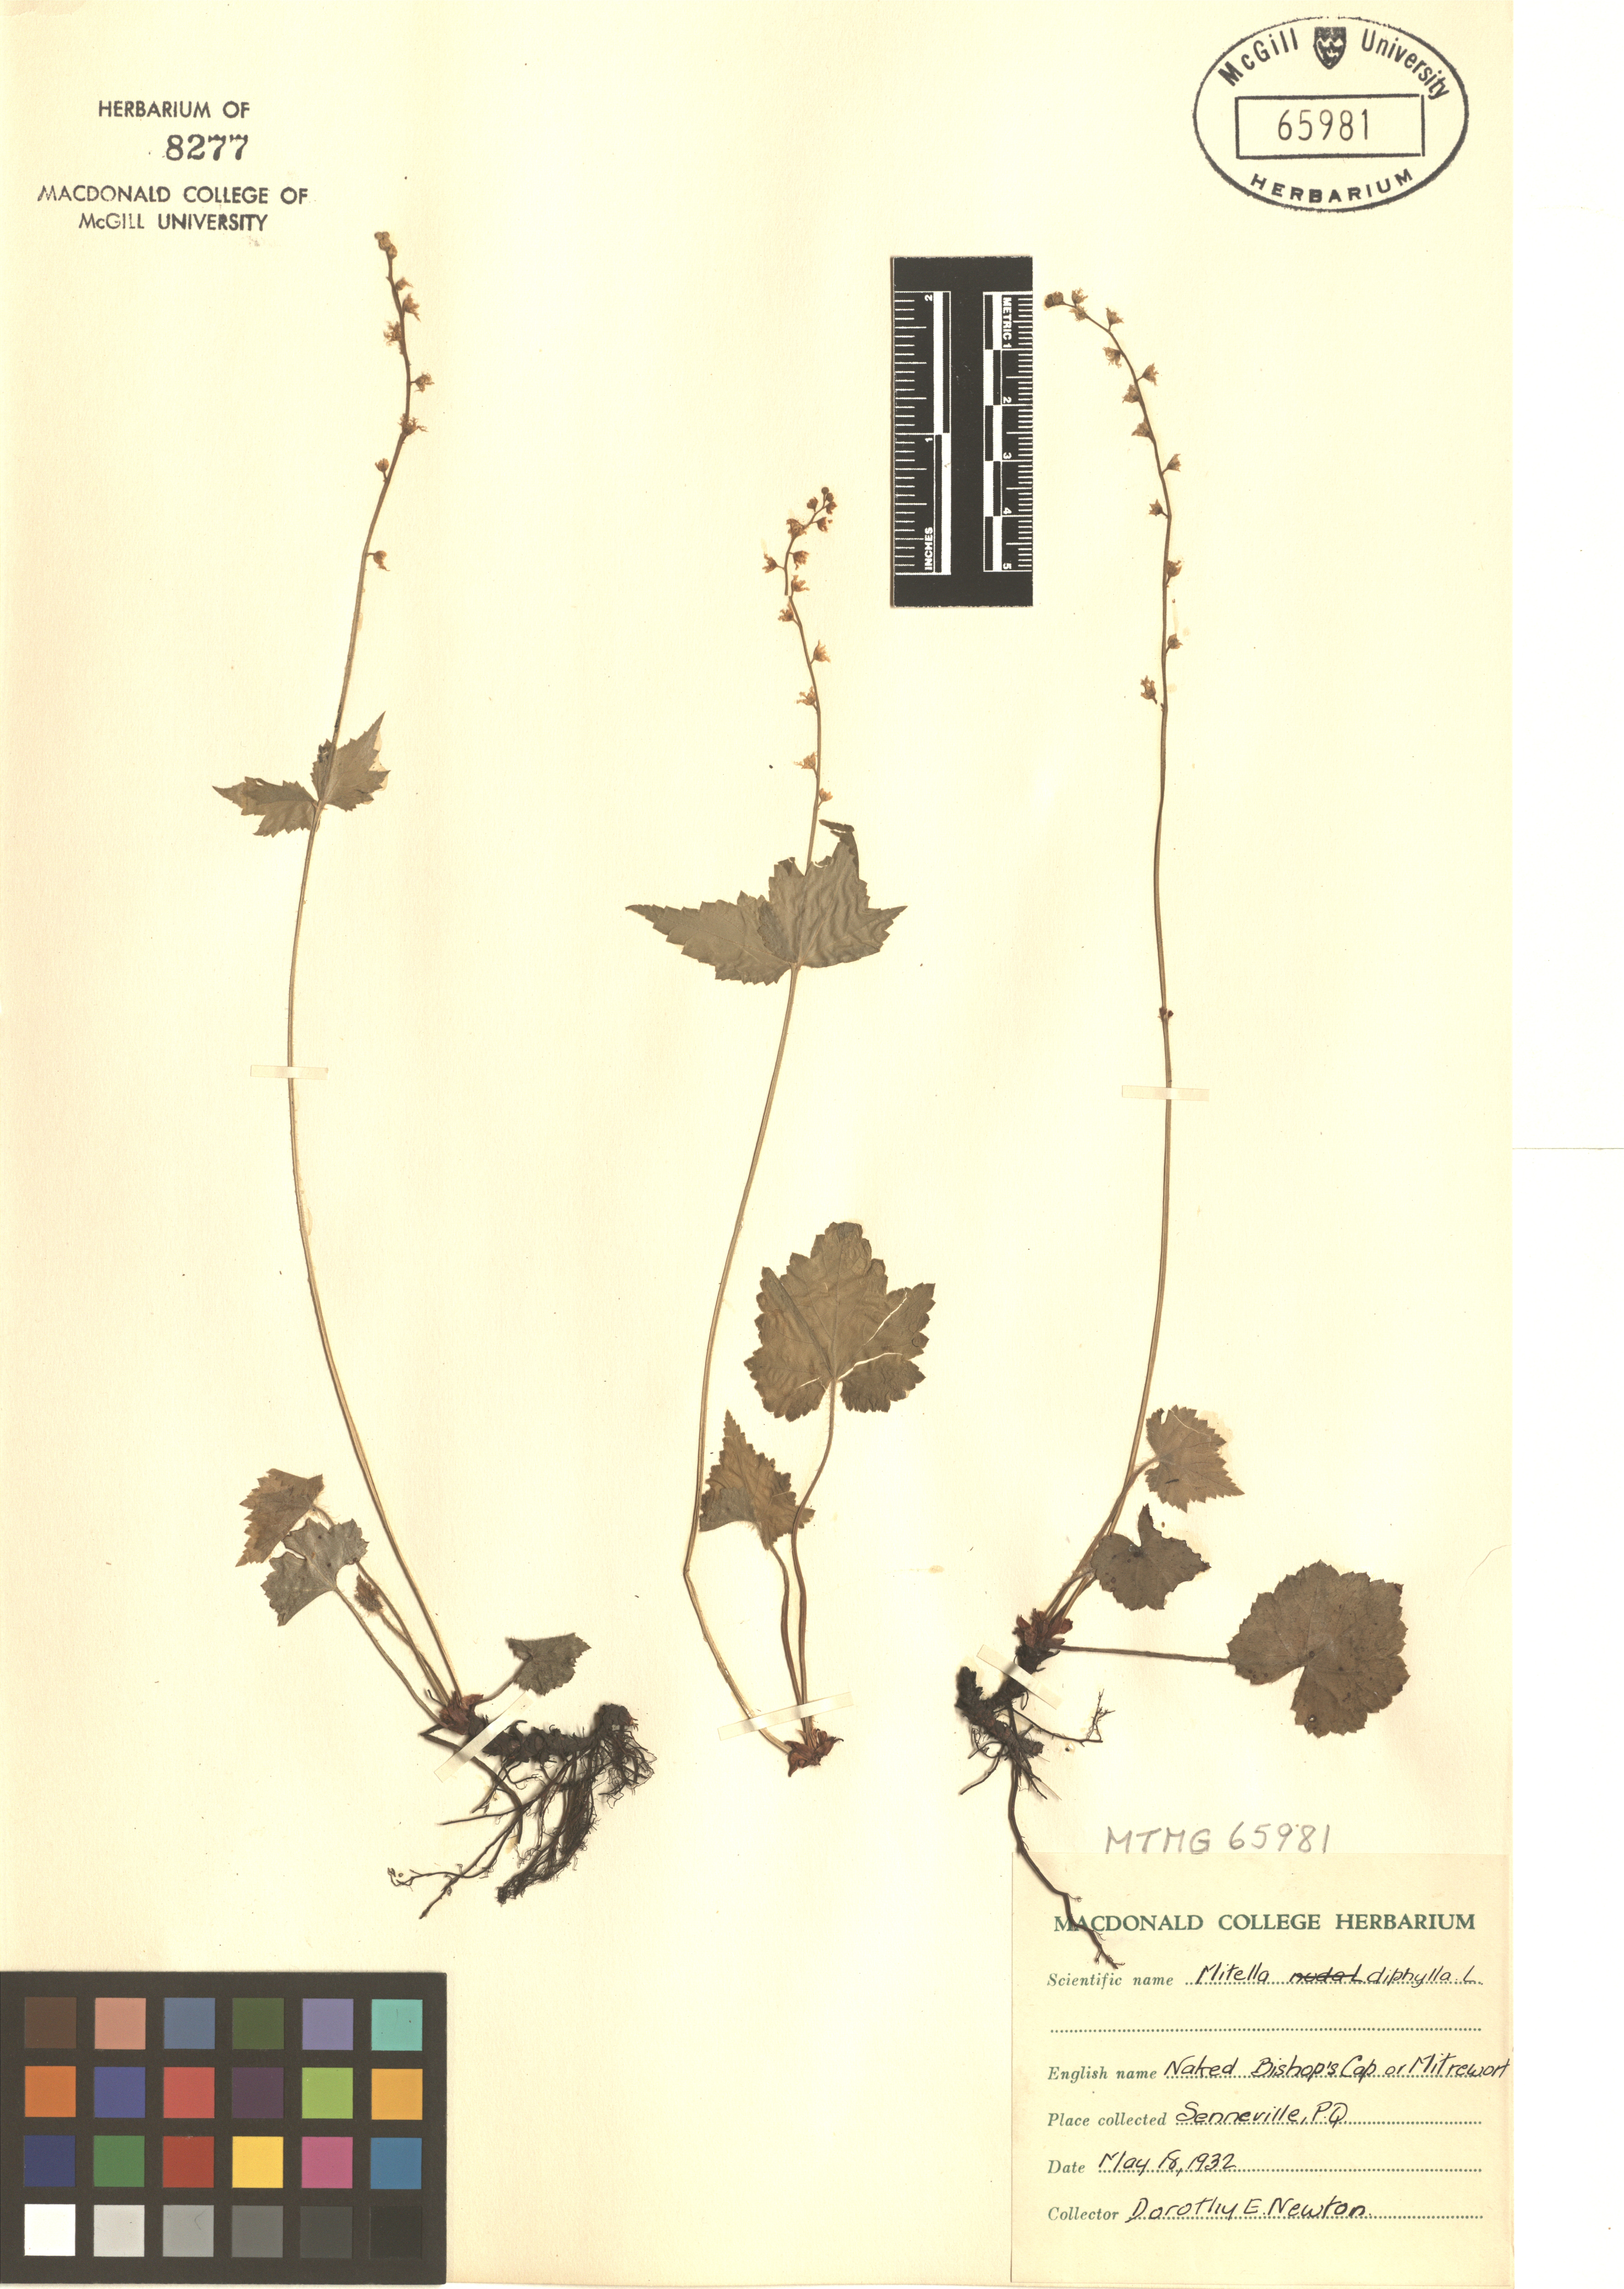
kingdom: Plantae
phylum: Tracheophyta
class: Magnoliopsida
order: Saxifragales
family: Saxifragaceae
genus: Mitella
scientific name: Mitella diphylla
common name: Coolwort
